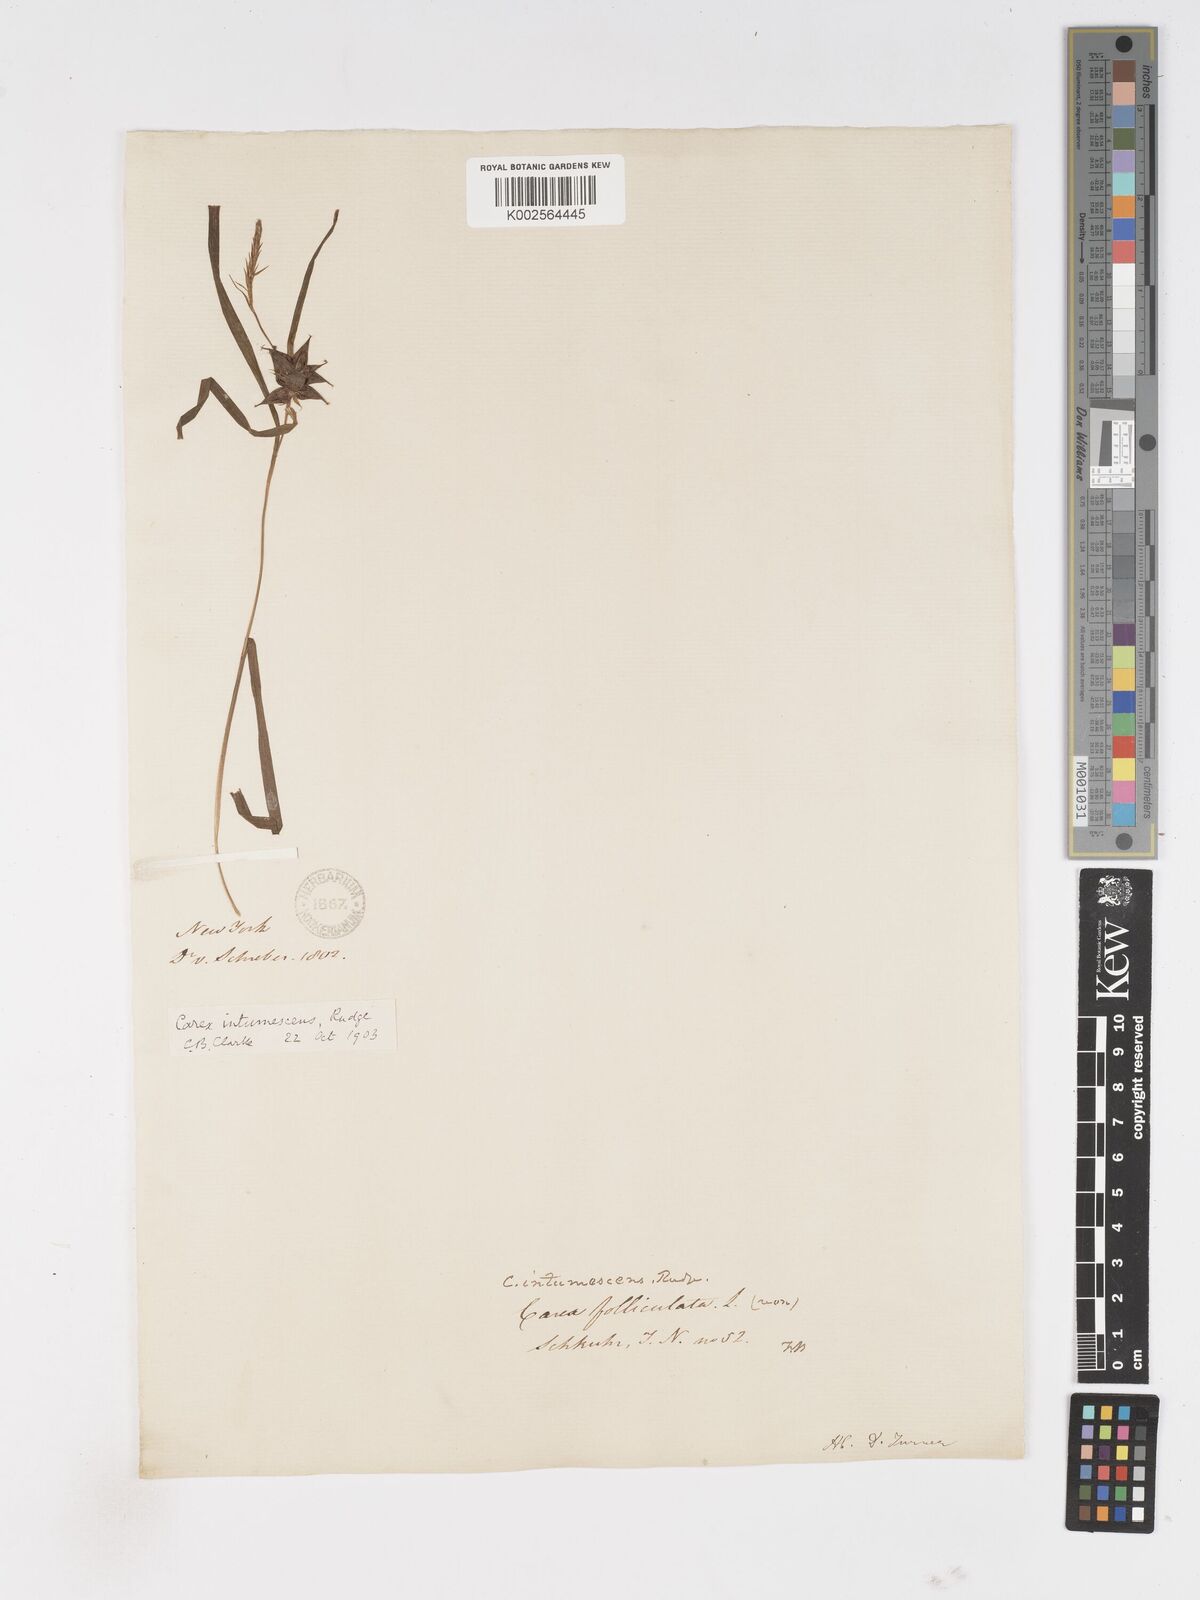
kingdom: Plantae
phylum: Tracheophyta
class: Liliopsida
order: Poales
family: Cyperaceae
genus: Carex
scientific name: Carex intumescens
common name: Greater bladder sedge
